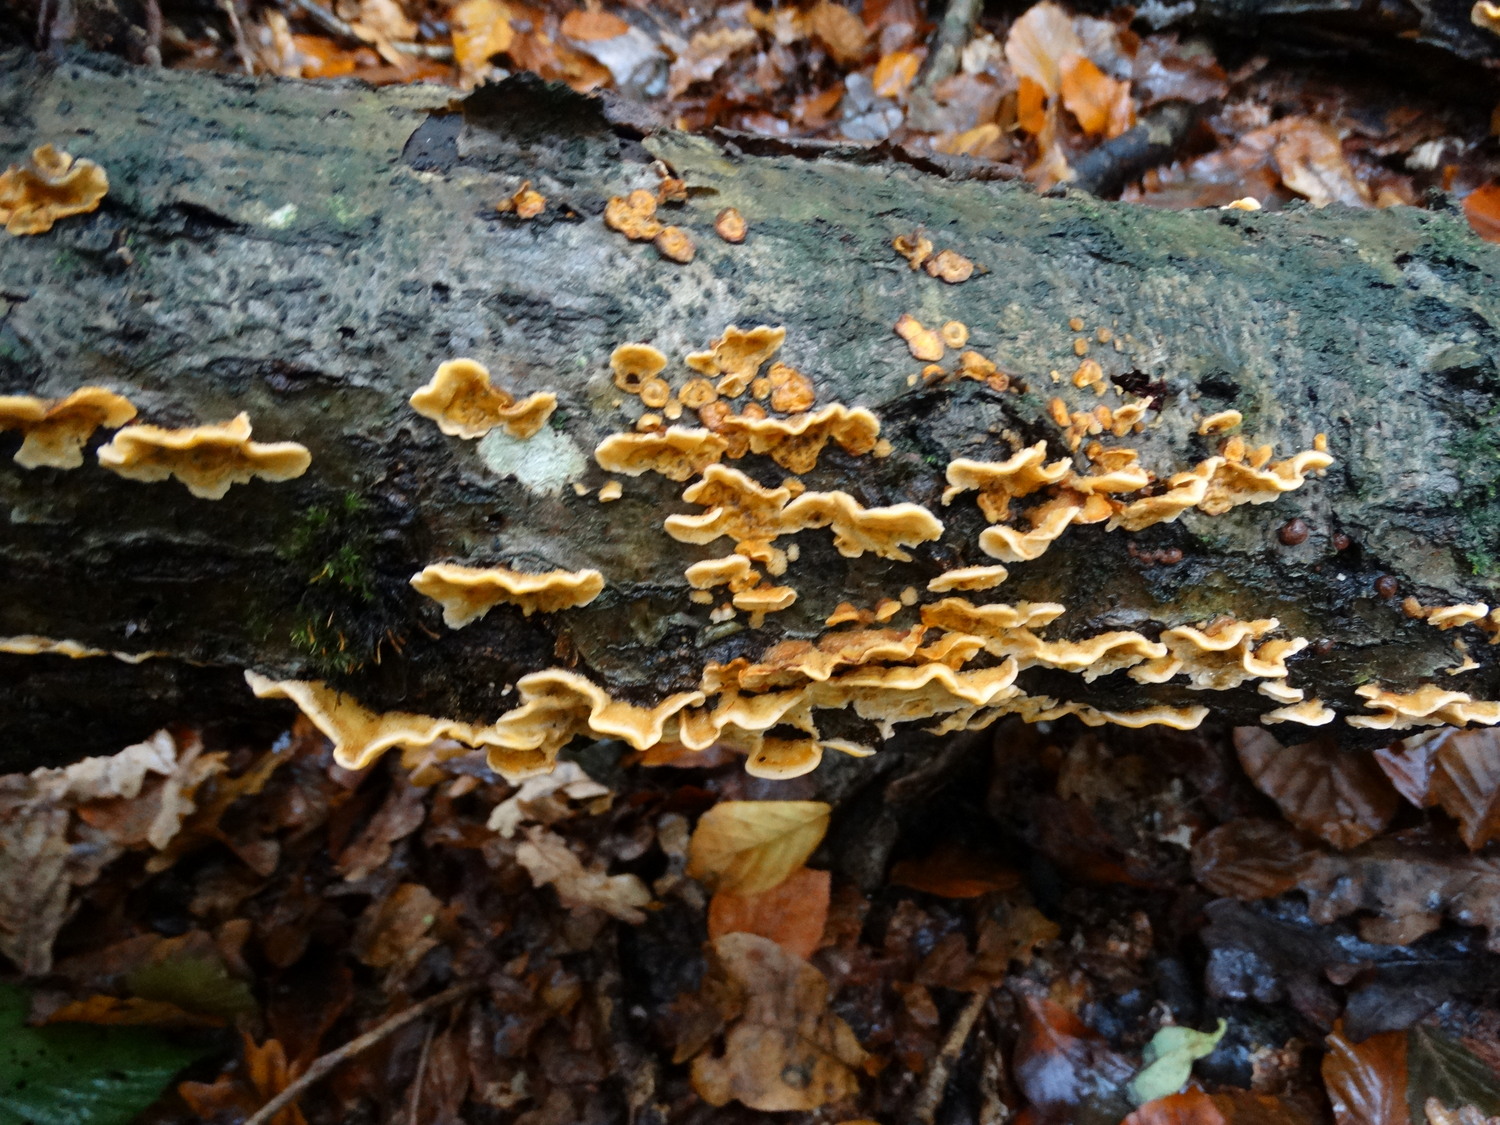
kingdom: Fungi
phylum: Basidiomycota
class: Agaricomycetes
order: Russulales
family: Stereaceae
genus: Stereum
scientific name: Stereum hirsutum
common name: håret lædersvamp
